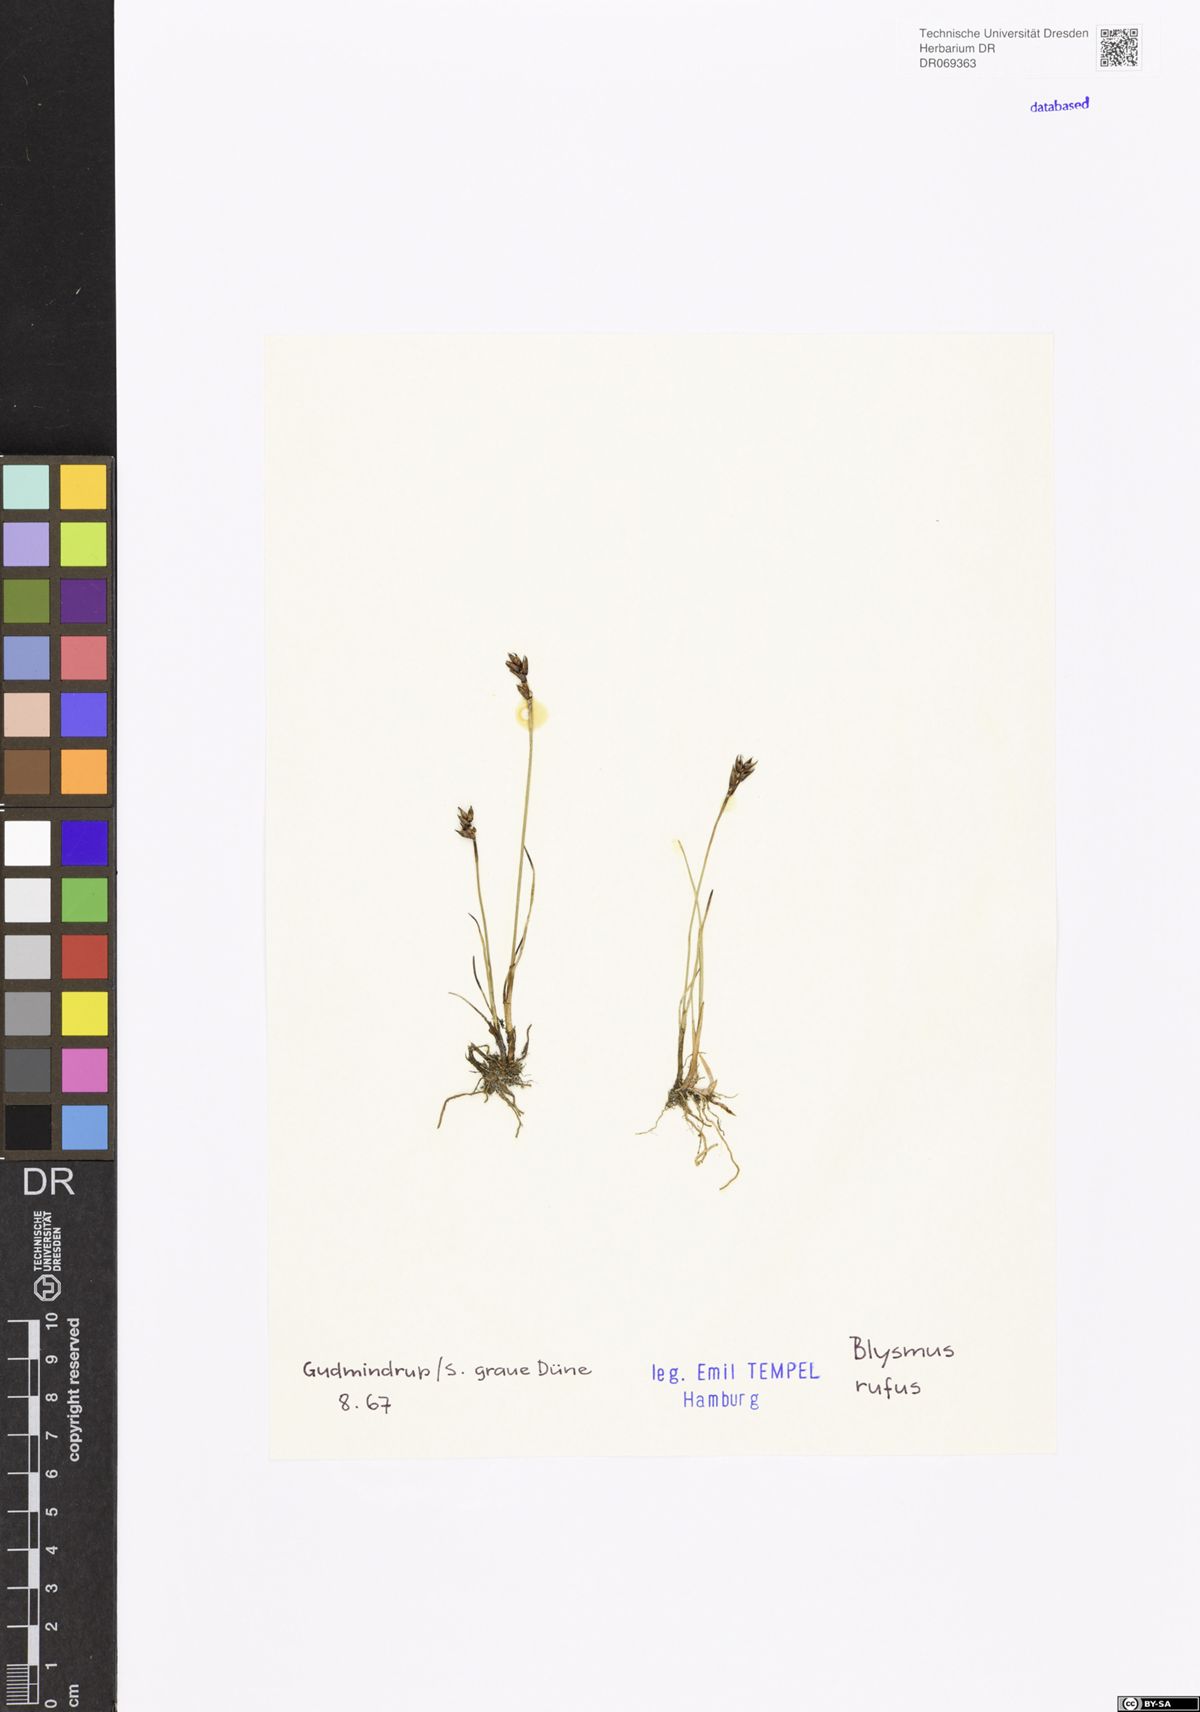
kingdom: Plantae
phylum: Tracheophyta
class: Liliopsida
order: Poales
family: Cyperaceae
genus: Blysmus
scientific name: Blysmus rufus
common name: Saltmarsh flat-sedge
